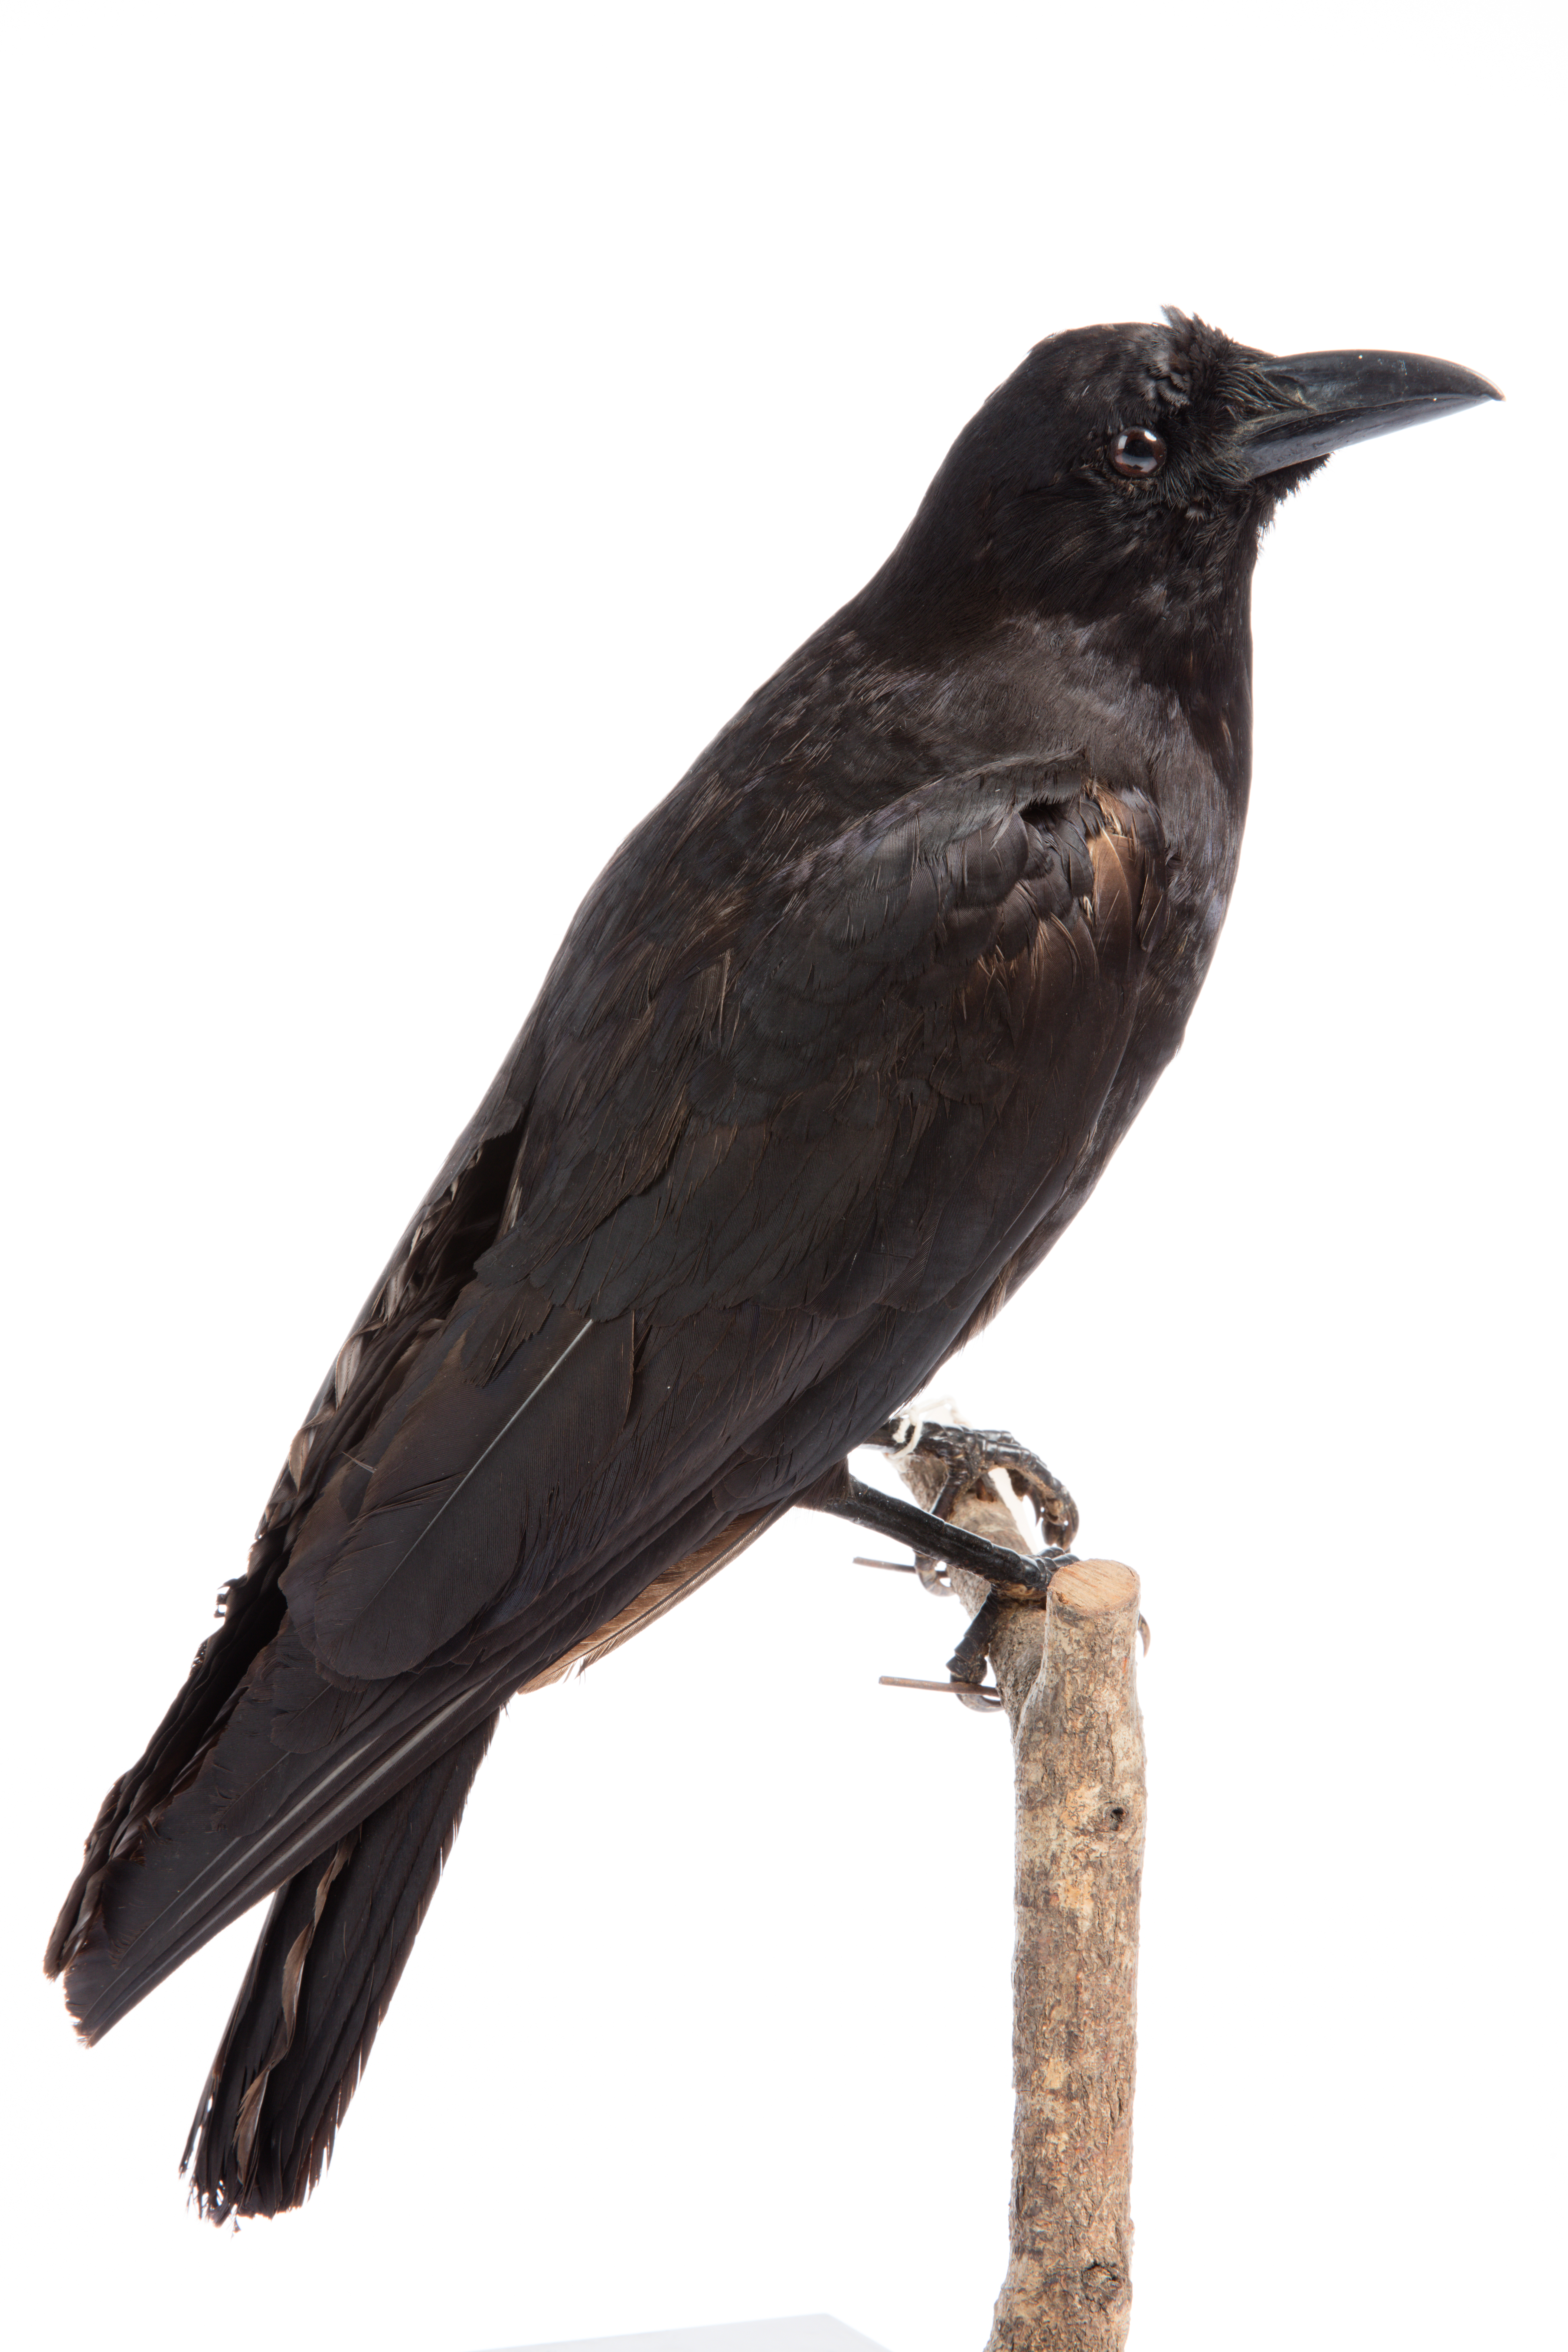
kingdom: Animalia
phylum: Chordata
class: Aves
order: Passeriformes
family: Corvidae
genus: Corvus
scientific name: Corvus brachyrhynchos
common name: American crow
